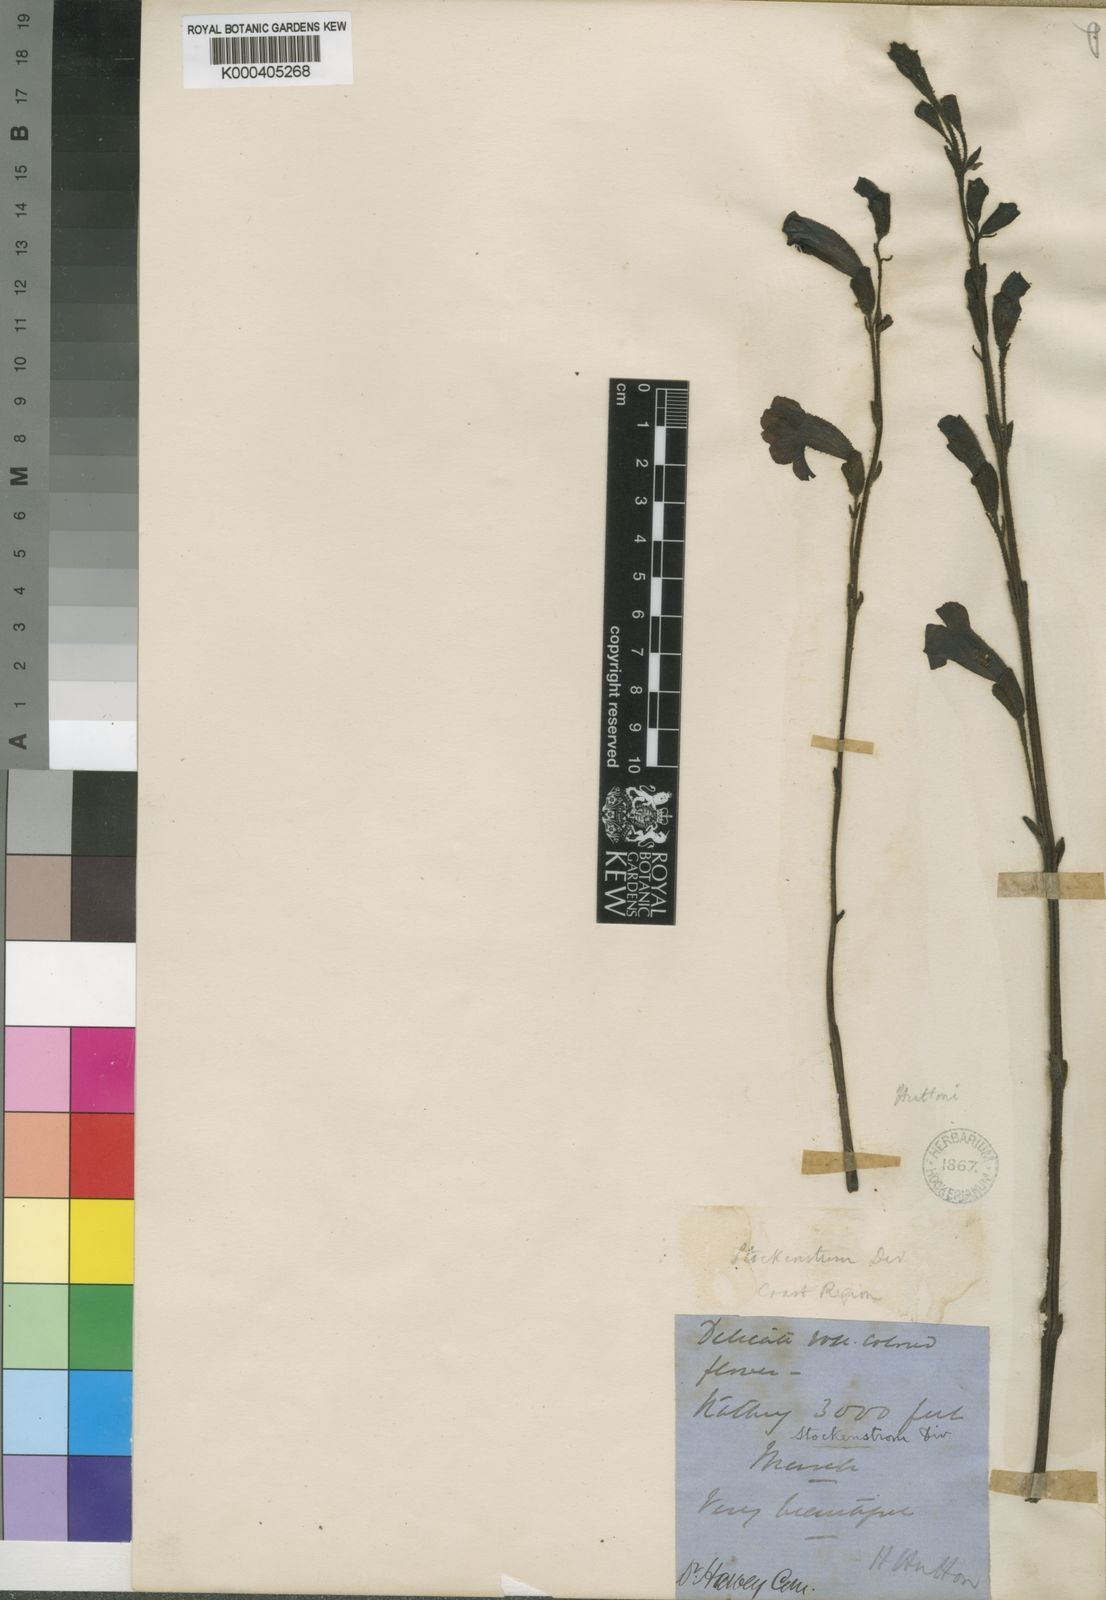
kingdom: Plantae
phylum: Tracheophyta
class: Magnoliopsida
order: Lamiales
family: Orobanchaceae
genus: Harveya
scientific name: Harveya huttonii
